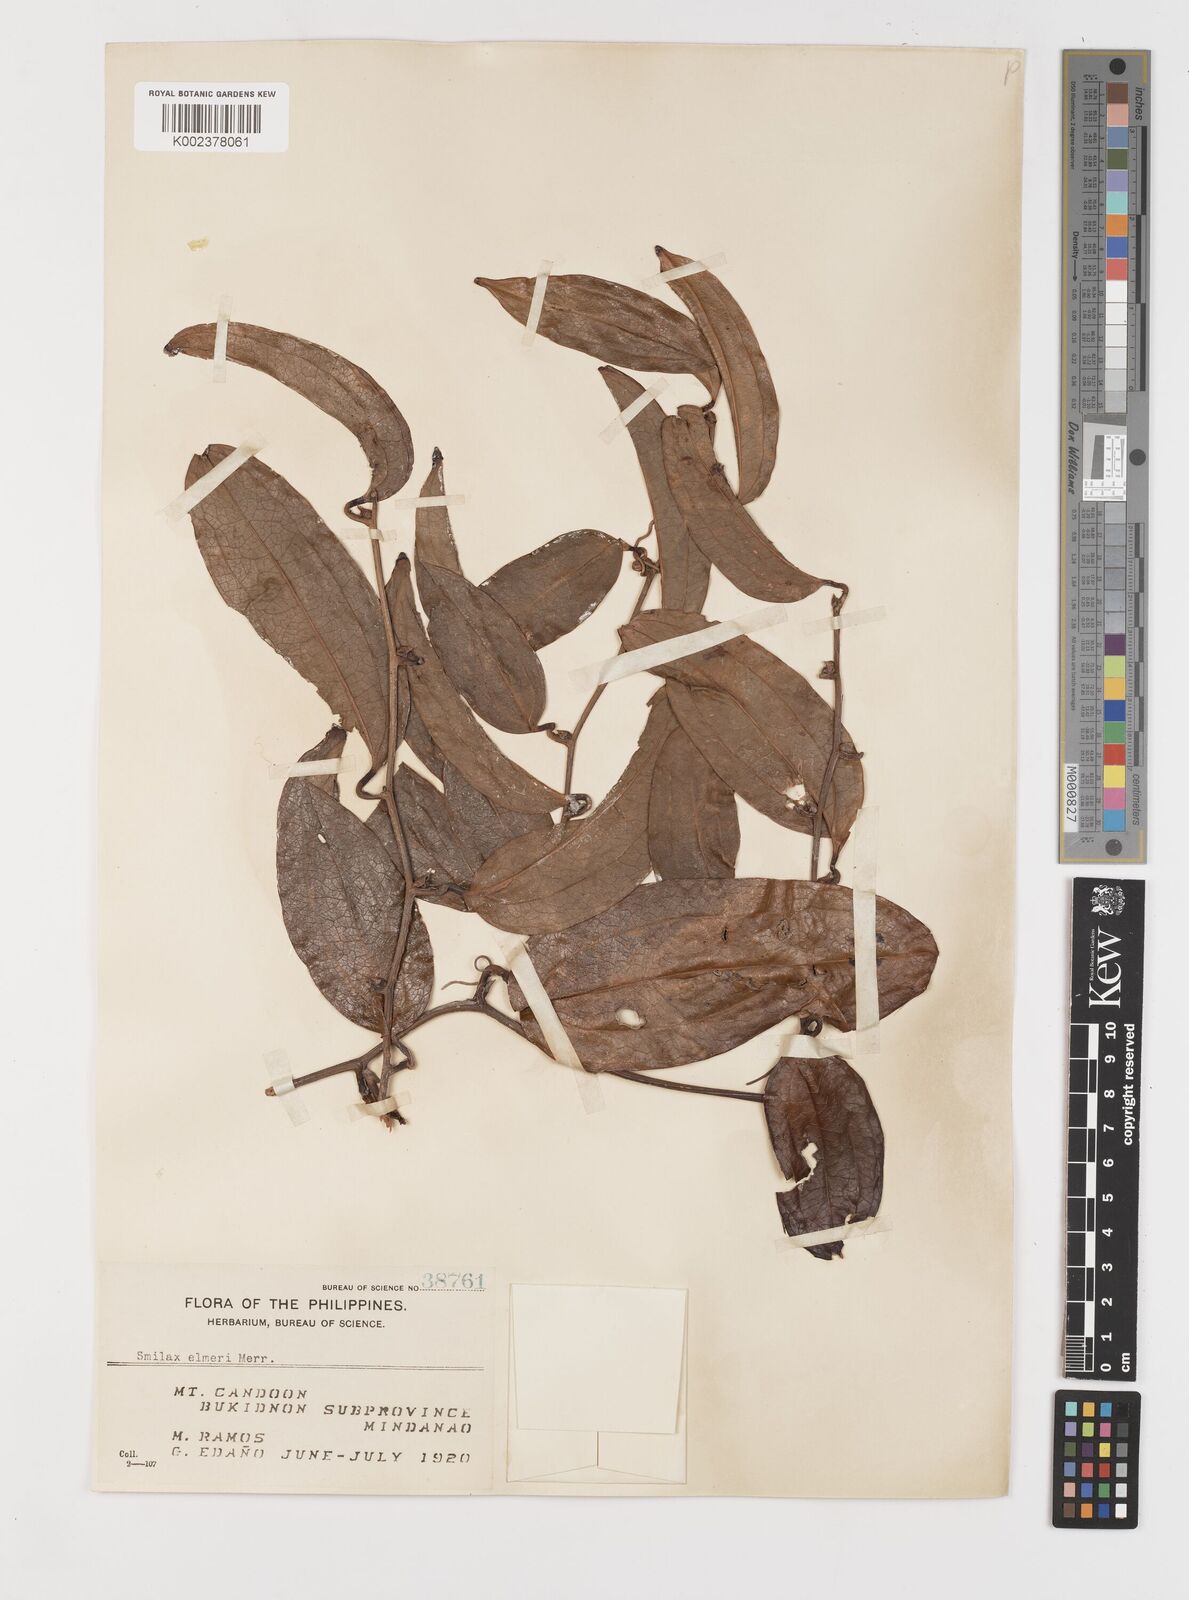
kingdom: Plantae
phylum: Tracheophyta
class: Liliopsida
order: Liliales
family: Smilacaceae
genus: Smilax
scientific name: Smilax elmeri
